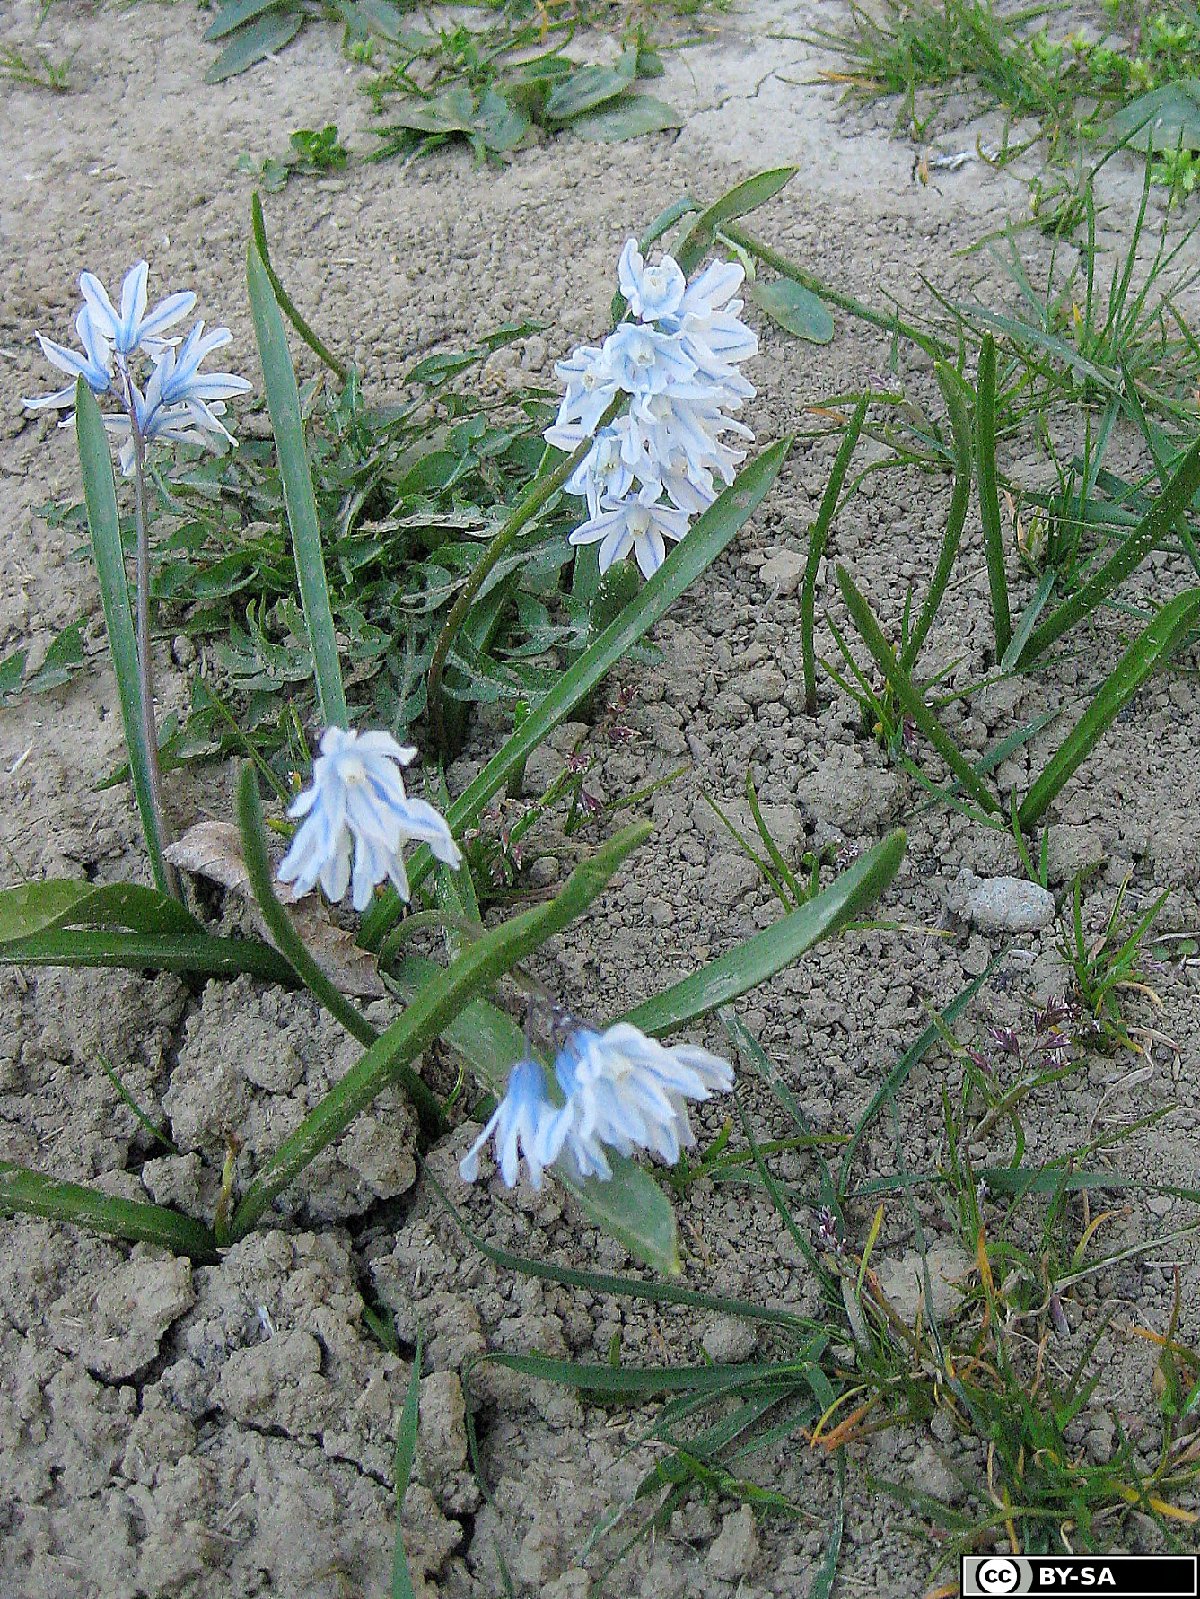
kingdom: Plantae
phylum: Tracheophyta
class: Liliopsida
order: Asparagales
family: Asparagaceae
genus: Puschkinia
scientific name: Puschkinia scilloides
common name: Striped squill
